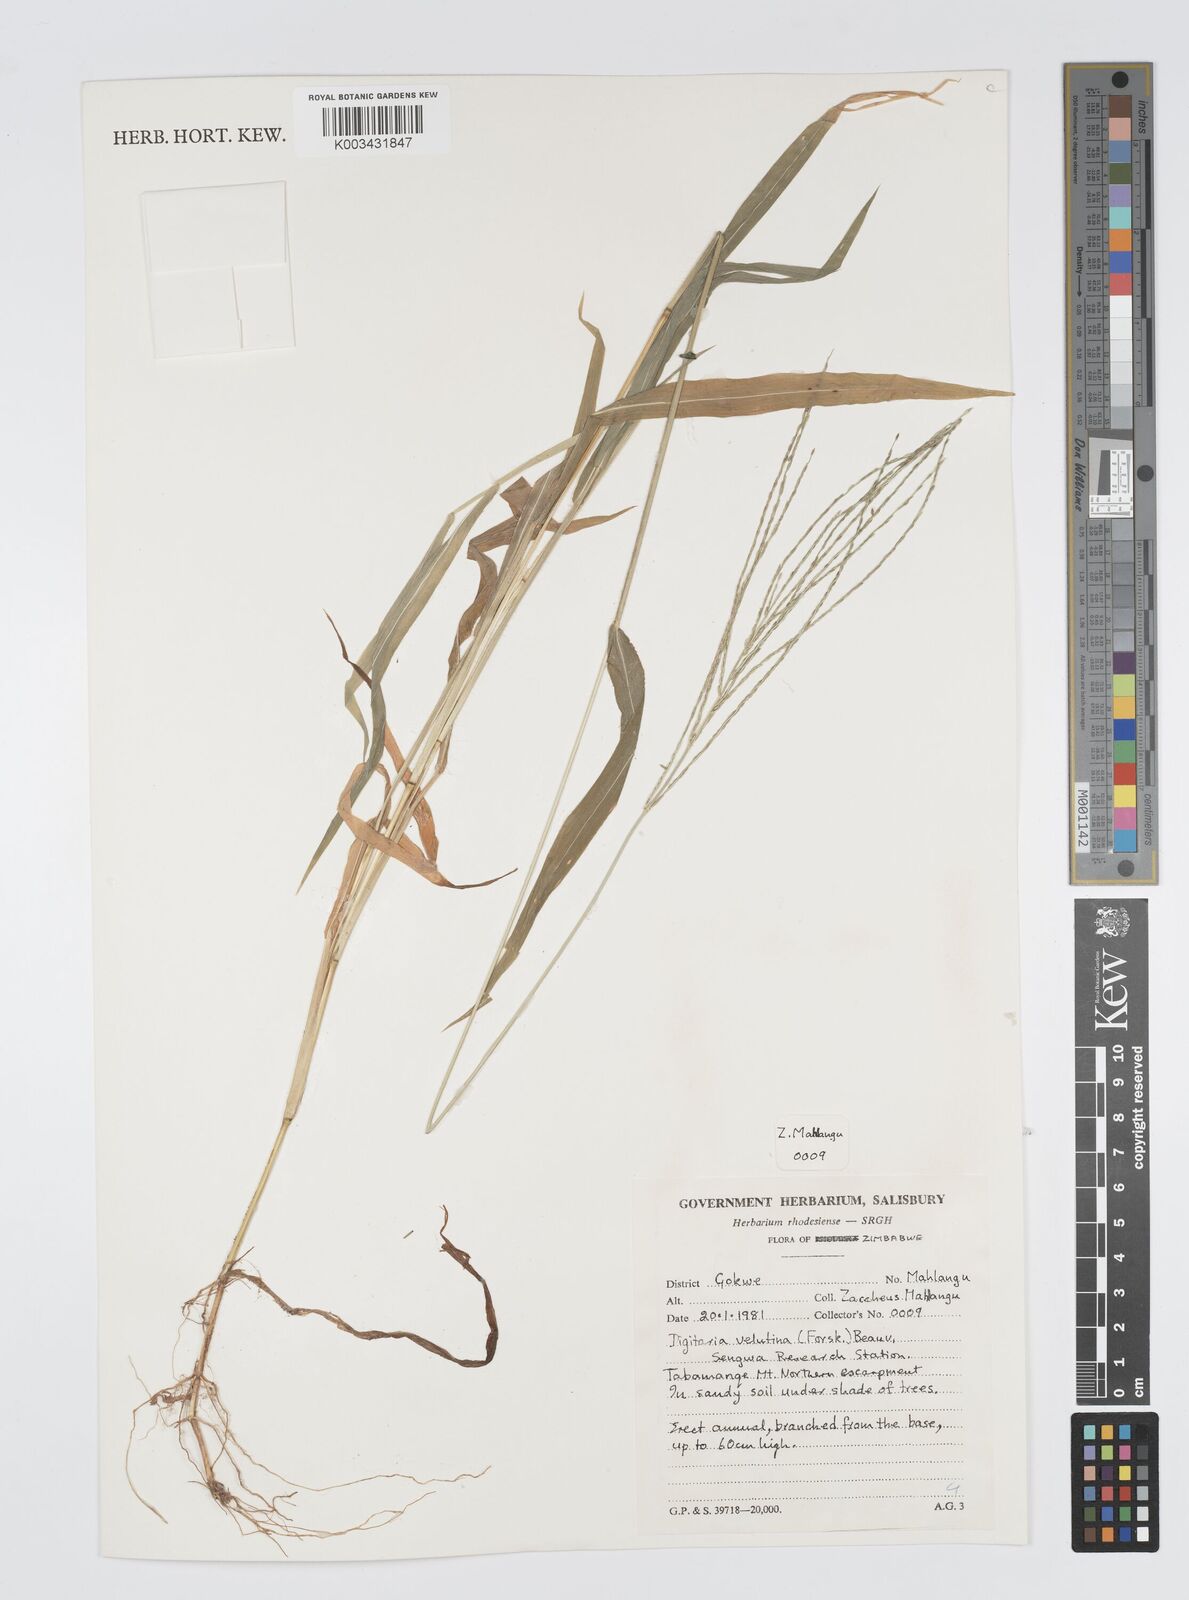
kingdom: Plantae
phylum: Tracheophyta
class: Liliopsida
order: Poales
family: Poaceae
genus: Digitaria
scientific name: Digitaria velutina
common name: Long-plume finger grass
